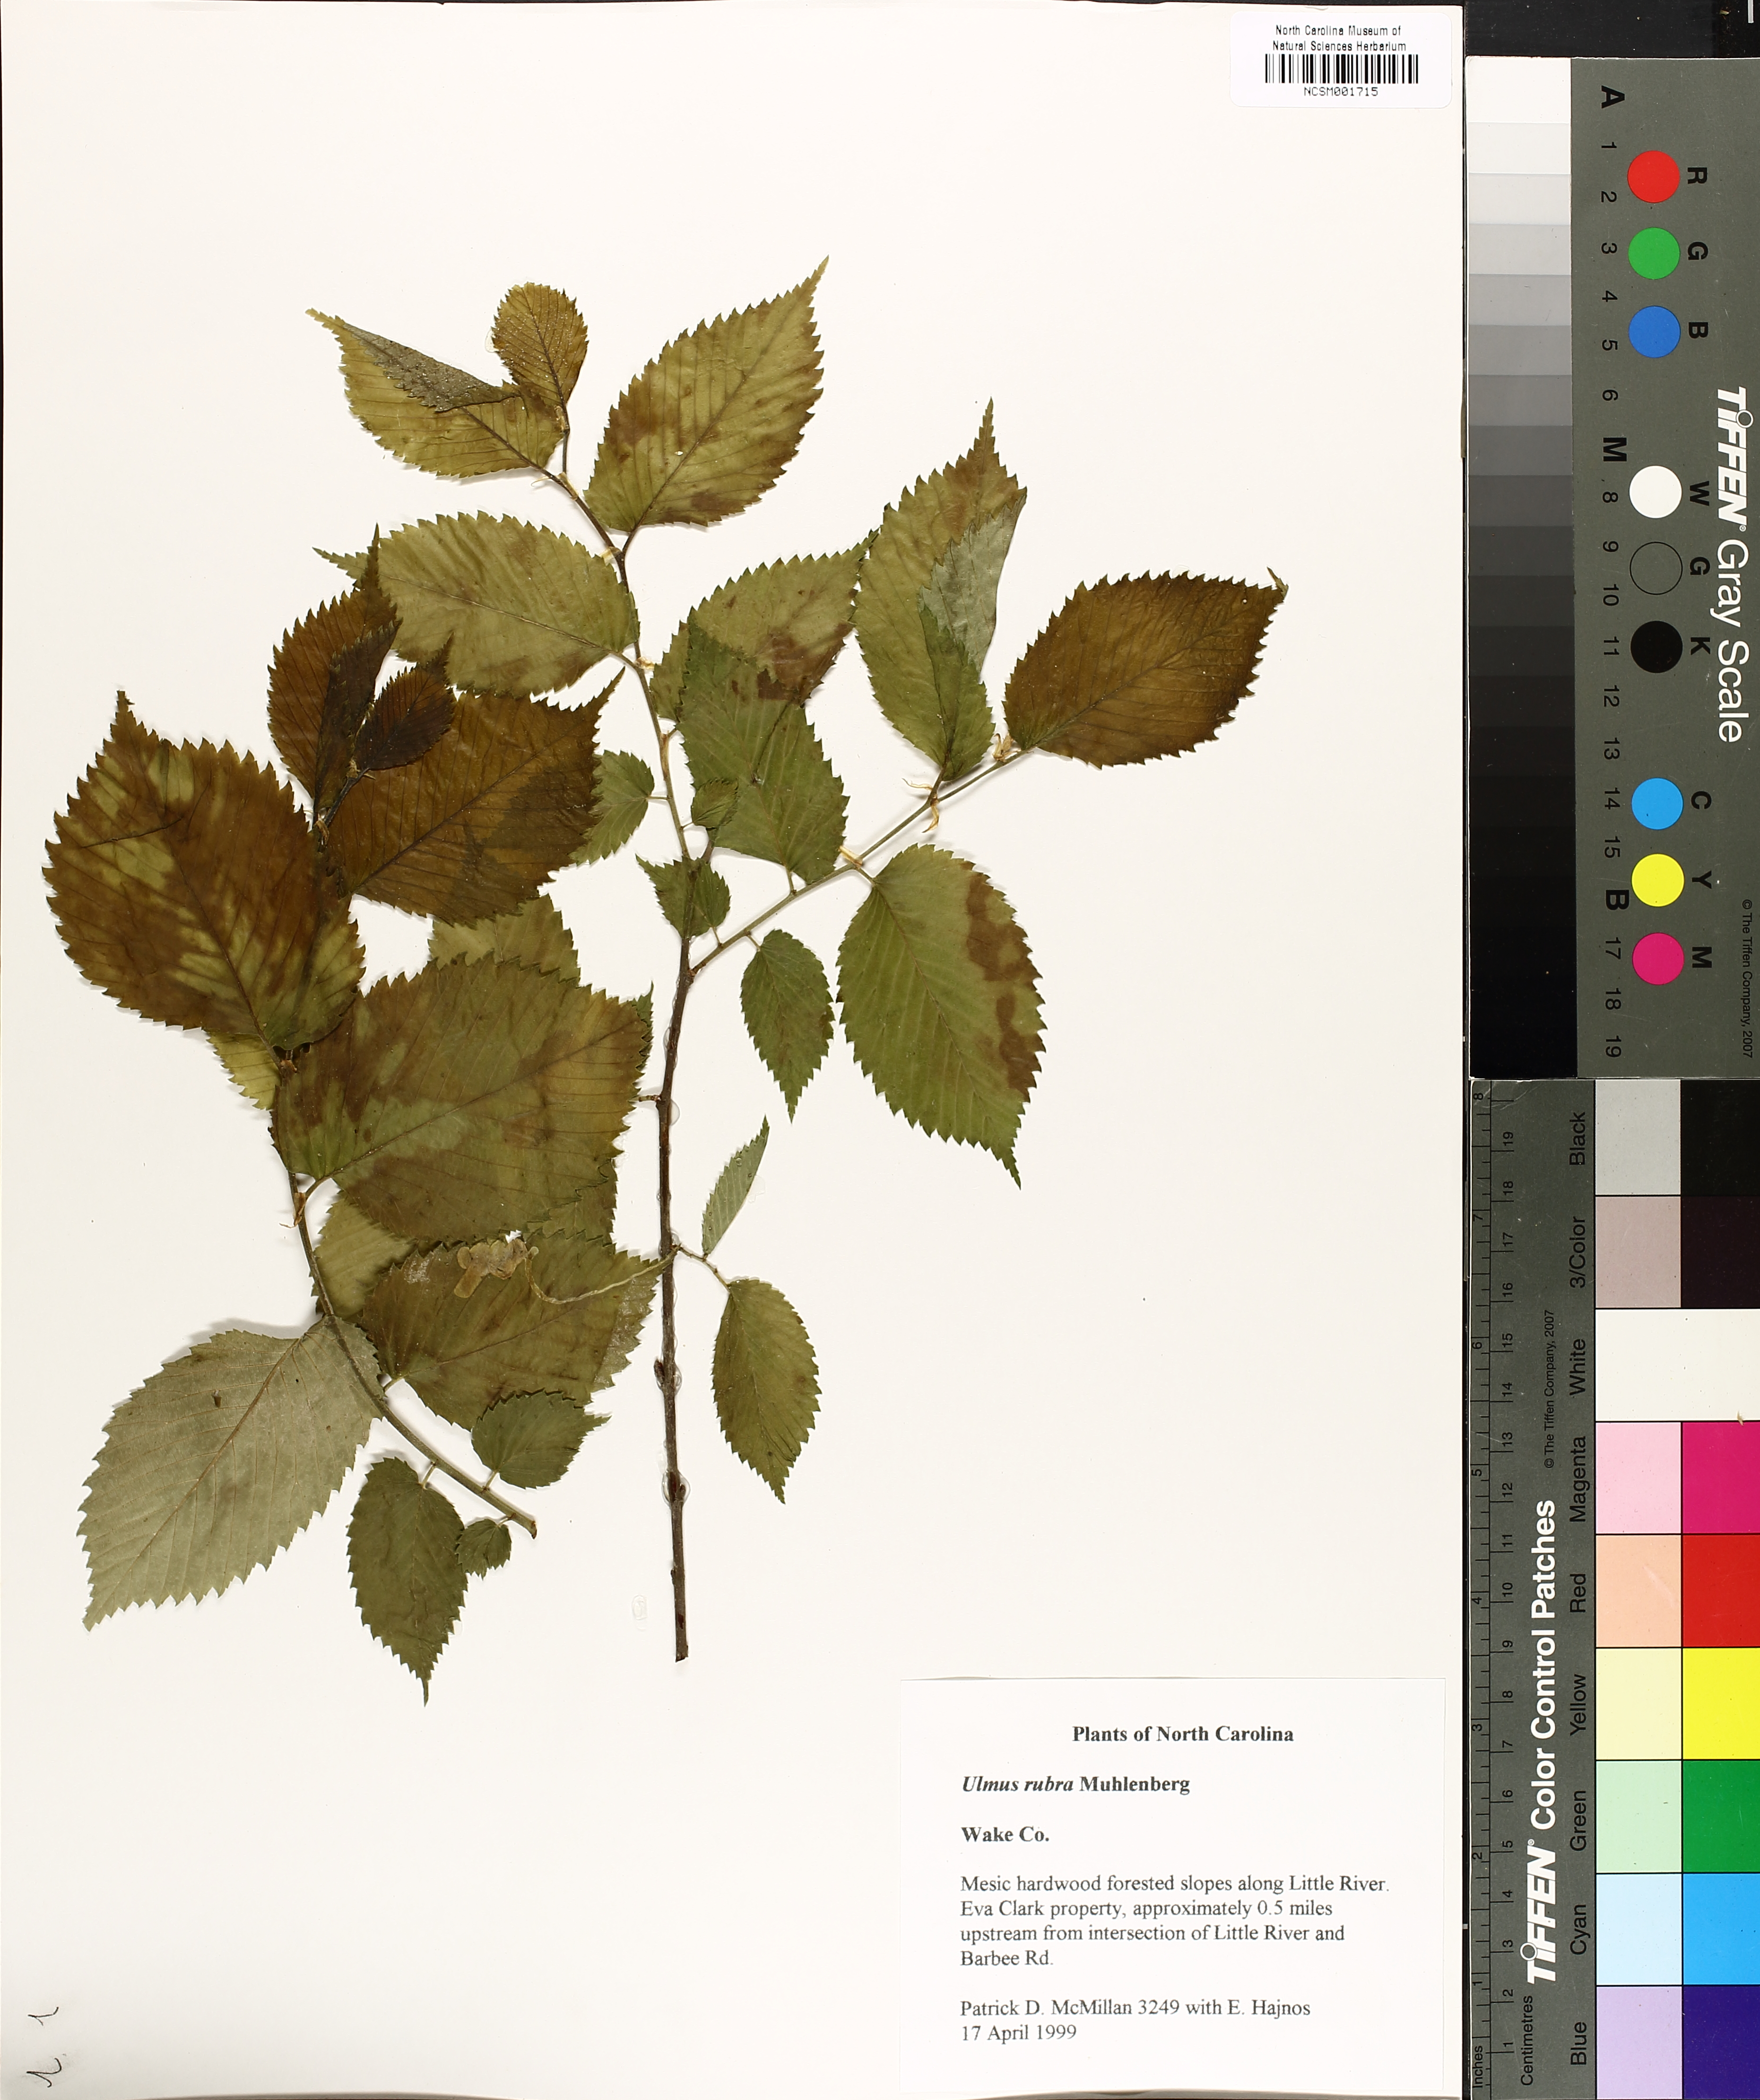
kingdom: Plantae
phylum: Tracheophyta
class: Magnoliopsida
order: Rosales
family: Ulmaceae
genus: Ulmus
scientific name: Ulmus rubra
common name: Slippery elm
